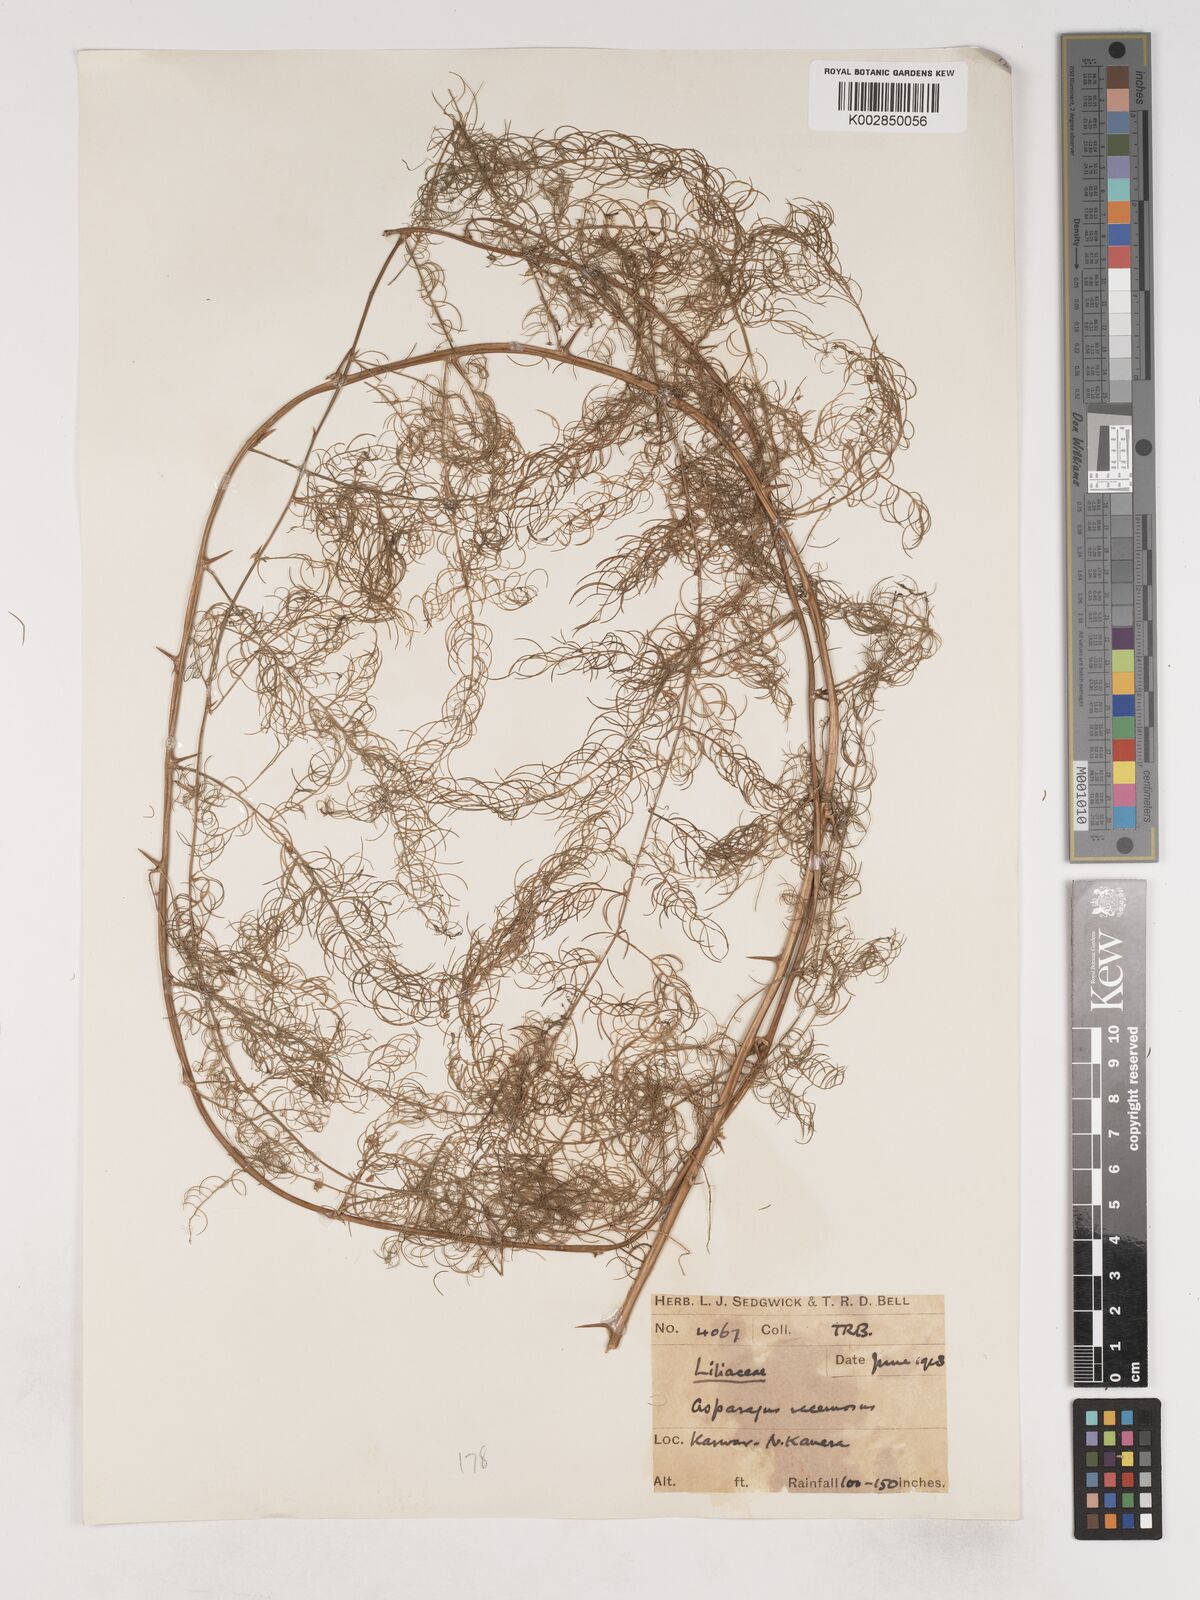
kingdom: Plantae
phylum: Tracheophyta
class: Liliopsida
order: Asparagales
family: Asparagaceae
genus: Asparagus
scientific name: Asparagus racemosus
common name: Asparagus-fern
